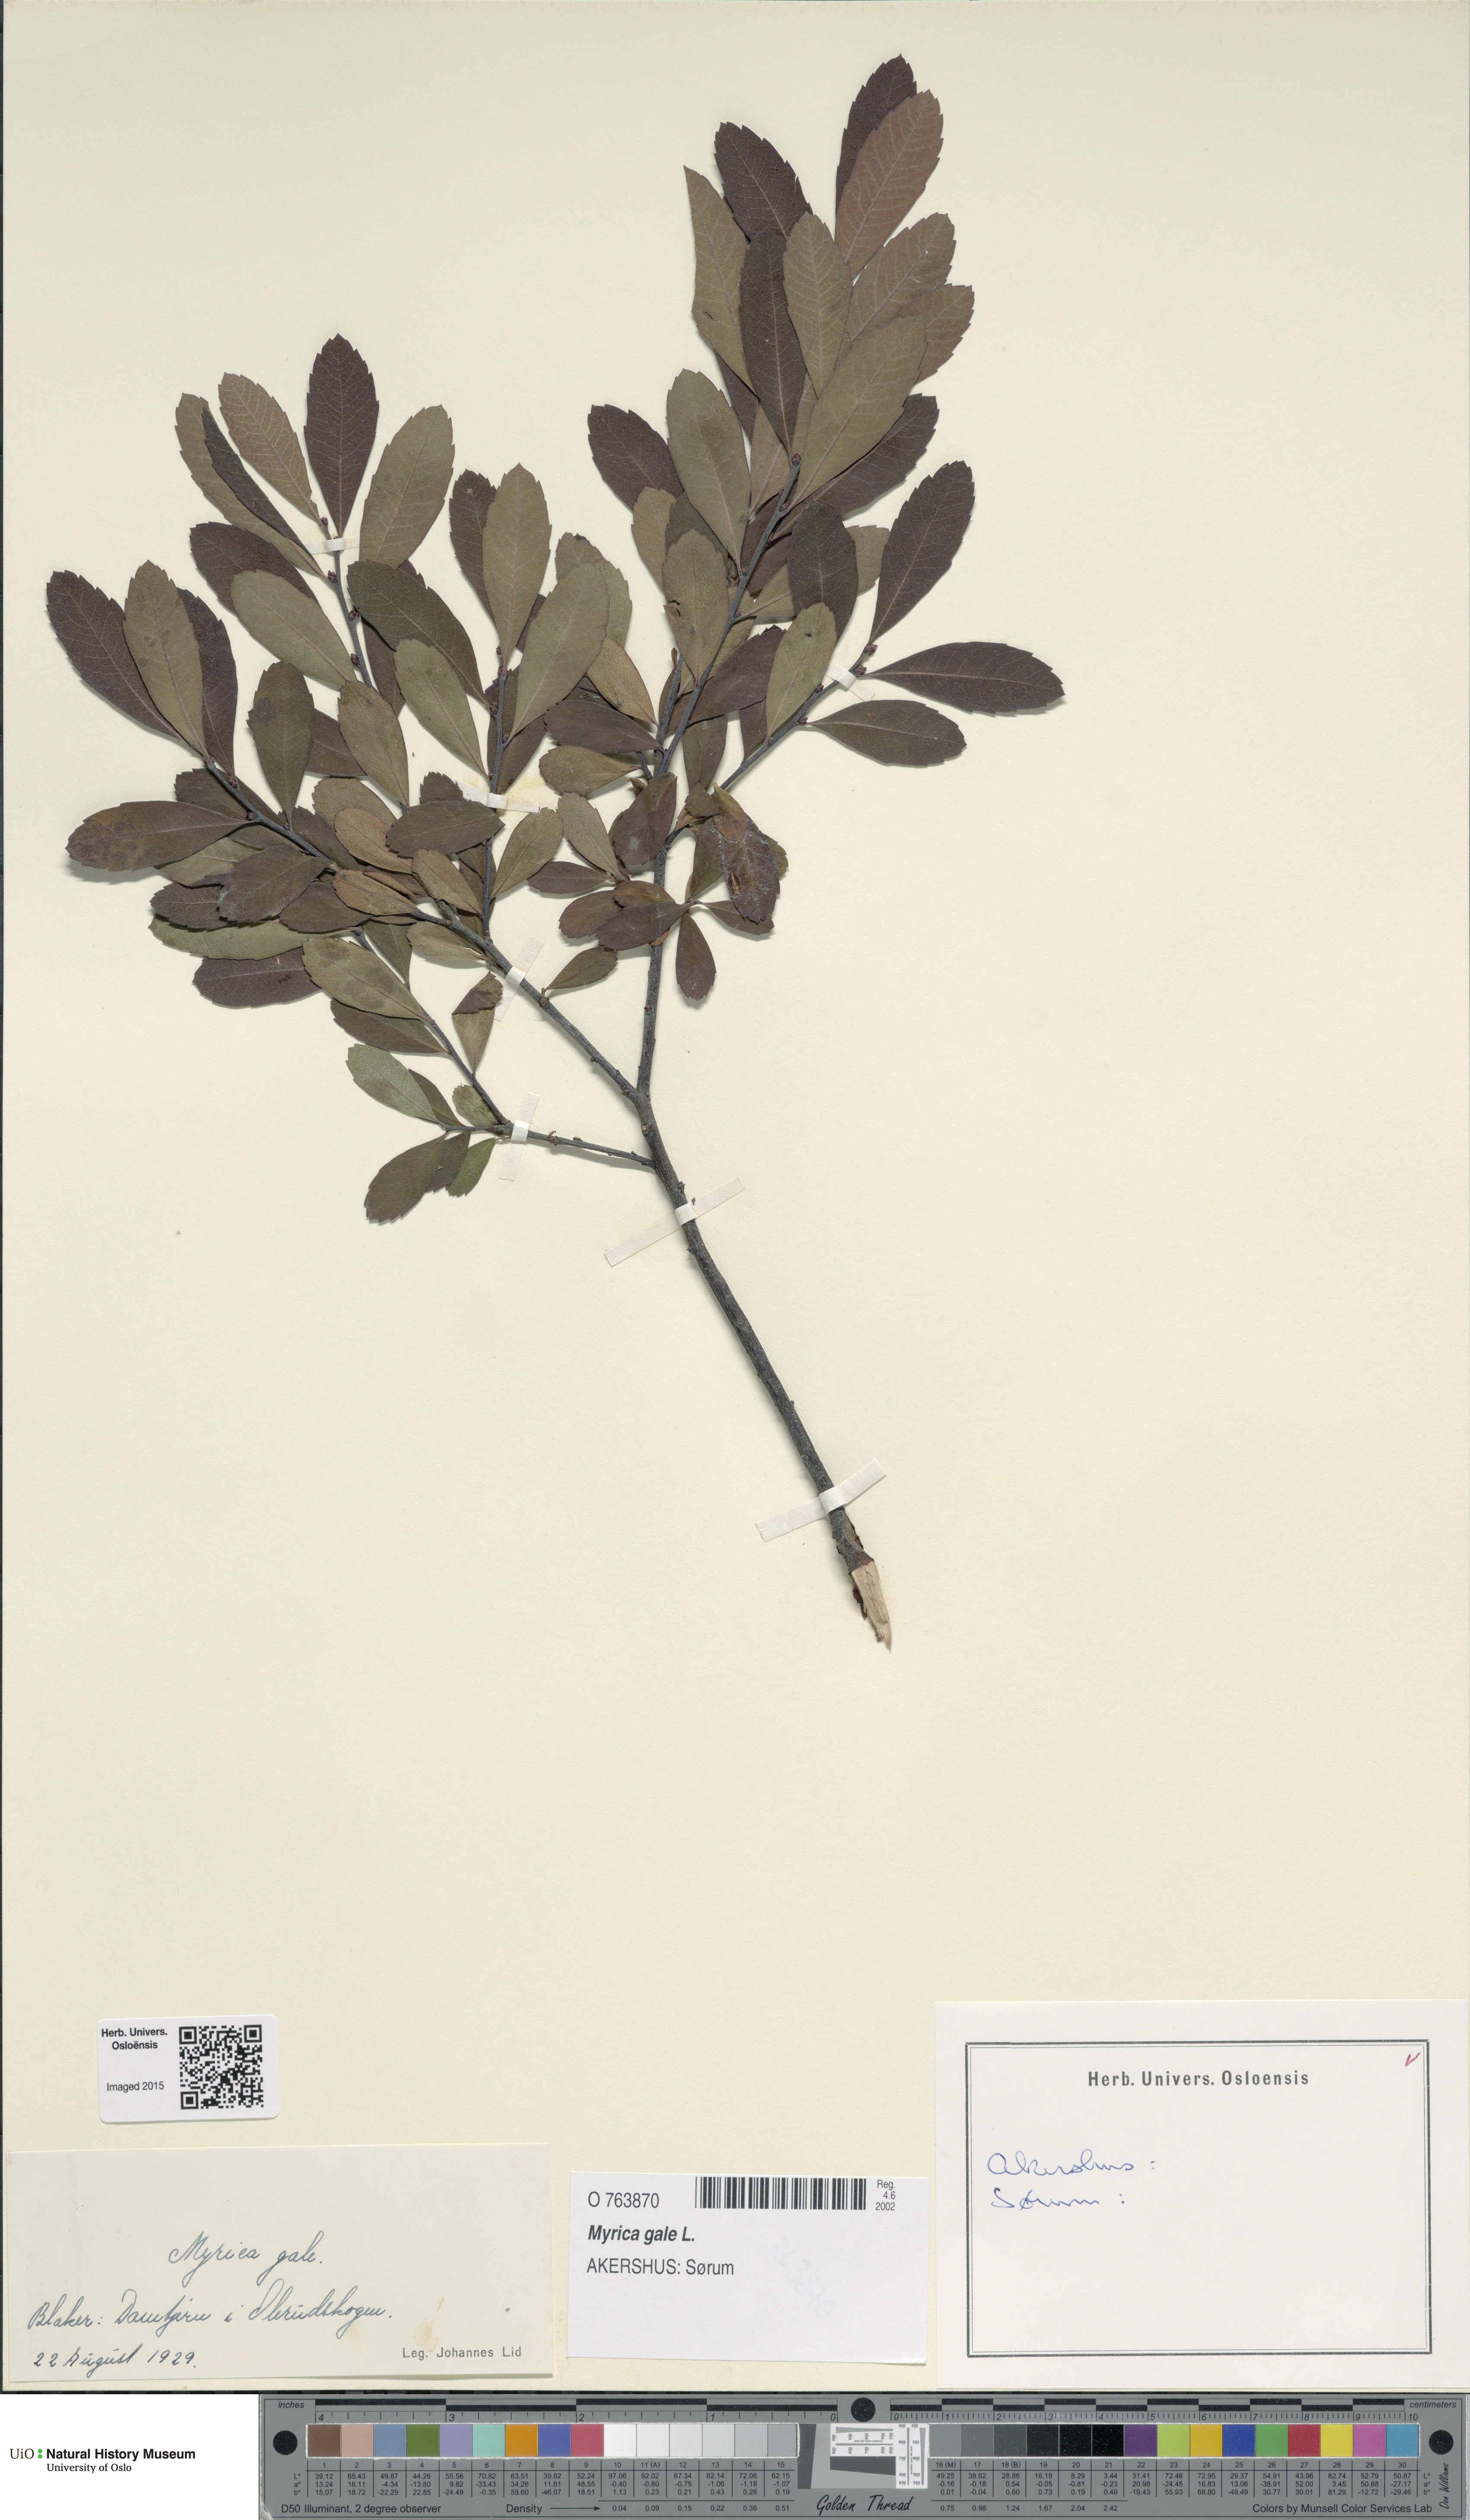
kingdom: Plantae
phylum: Tracheophyta
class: Magnoliopsida
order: Fagales
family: Myricaceae
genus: Myrica
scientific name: Myrica gale
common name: Sweet gale
